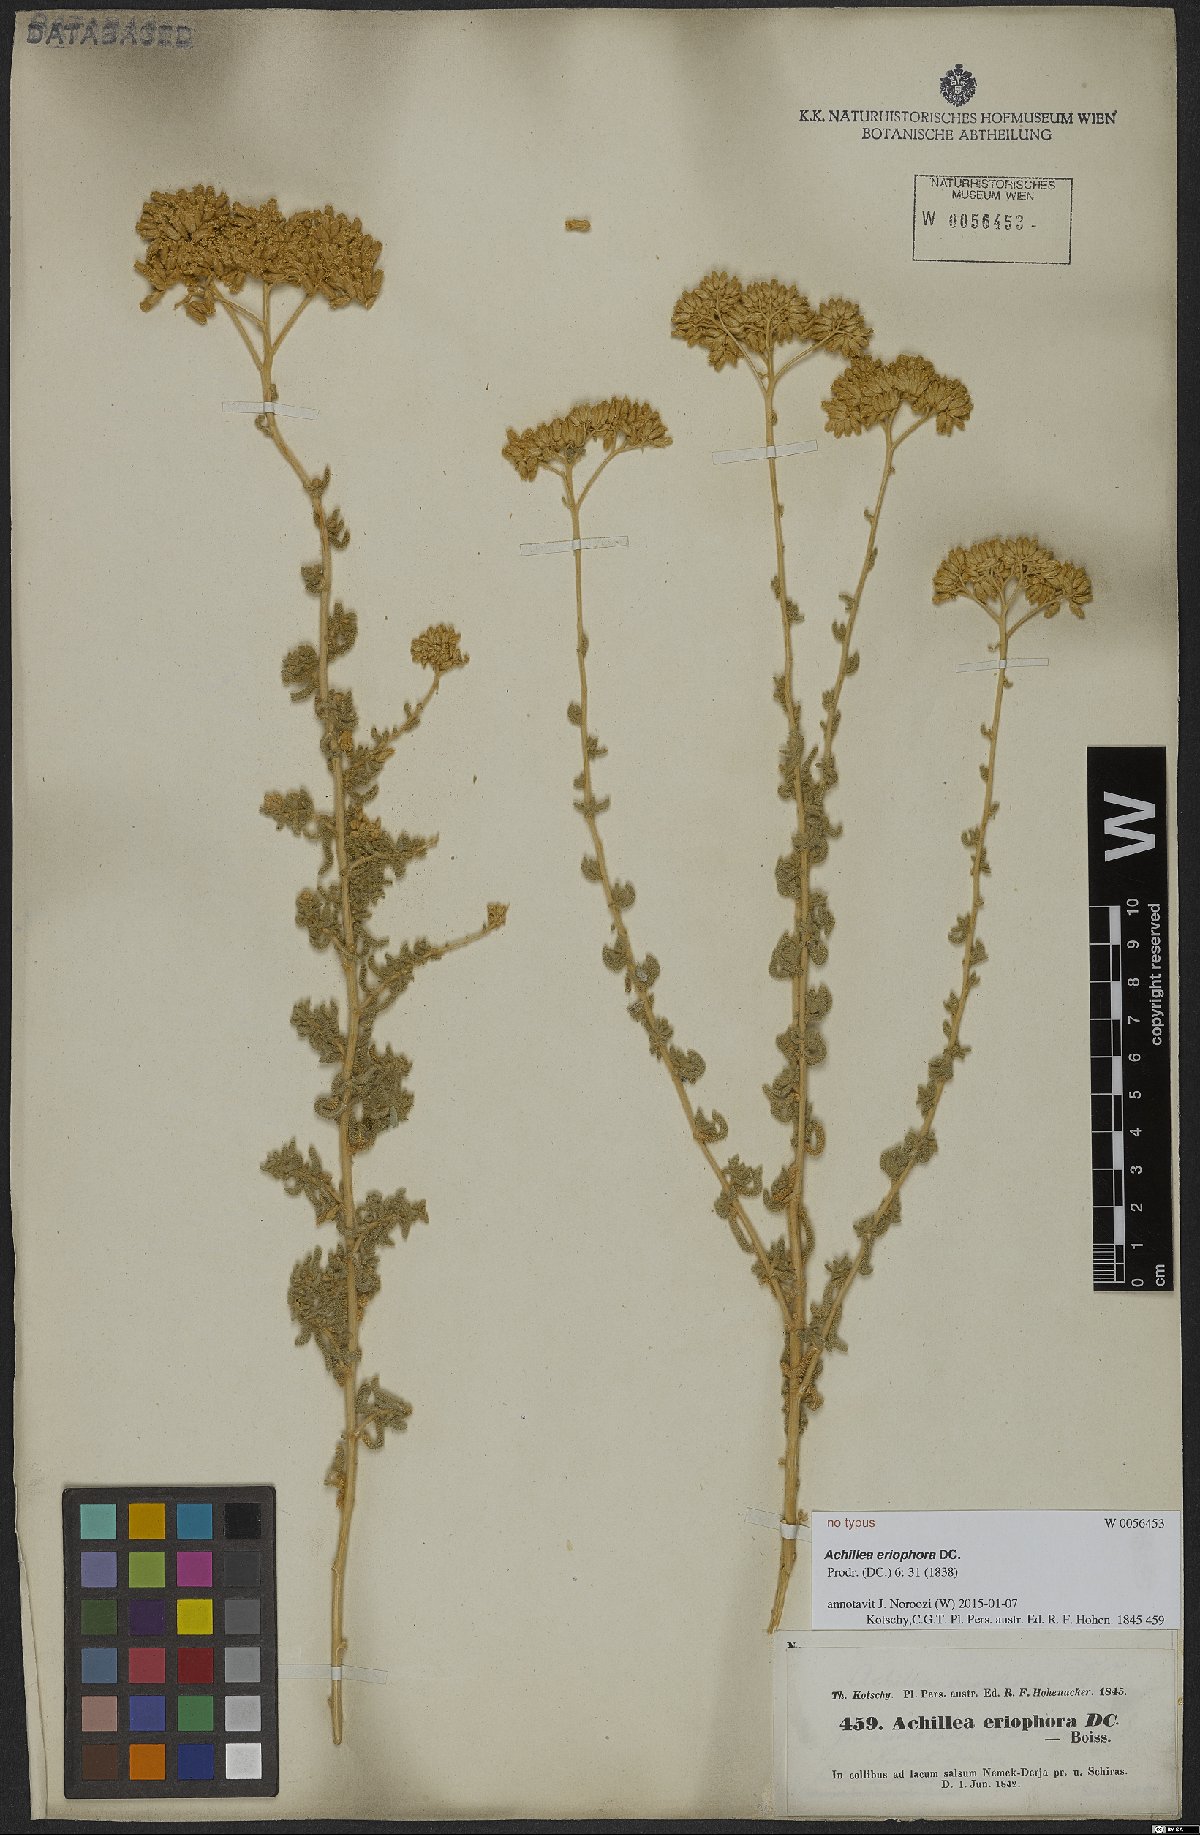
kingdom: Plantae
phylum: Tracheophyta
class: Magnoliopsida
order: Asterales
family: Asteraceae
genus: Achillea
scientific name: Achillea eriophora
